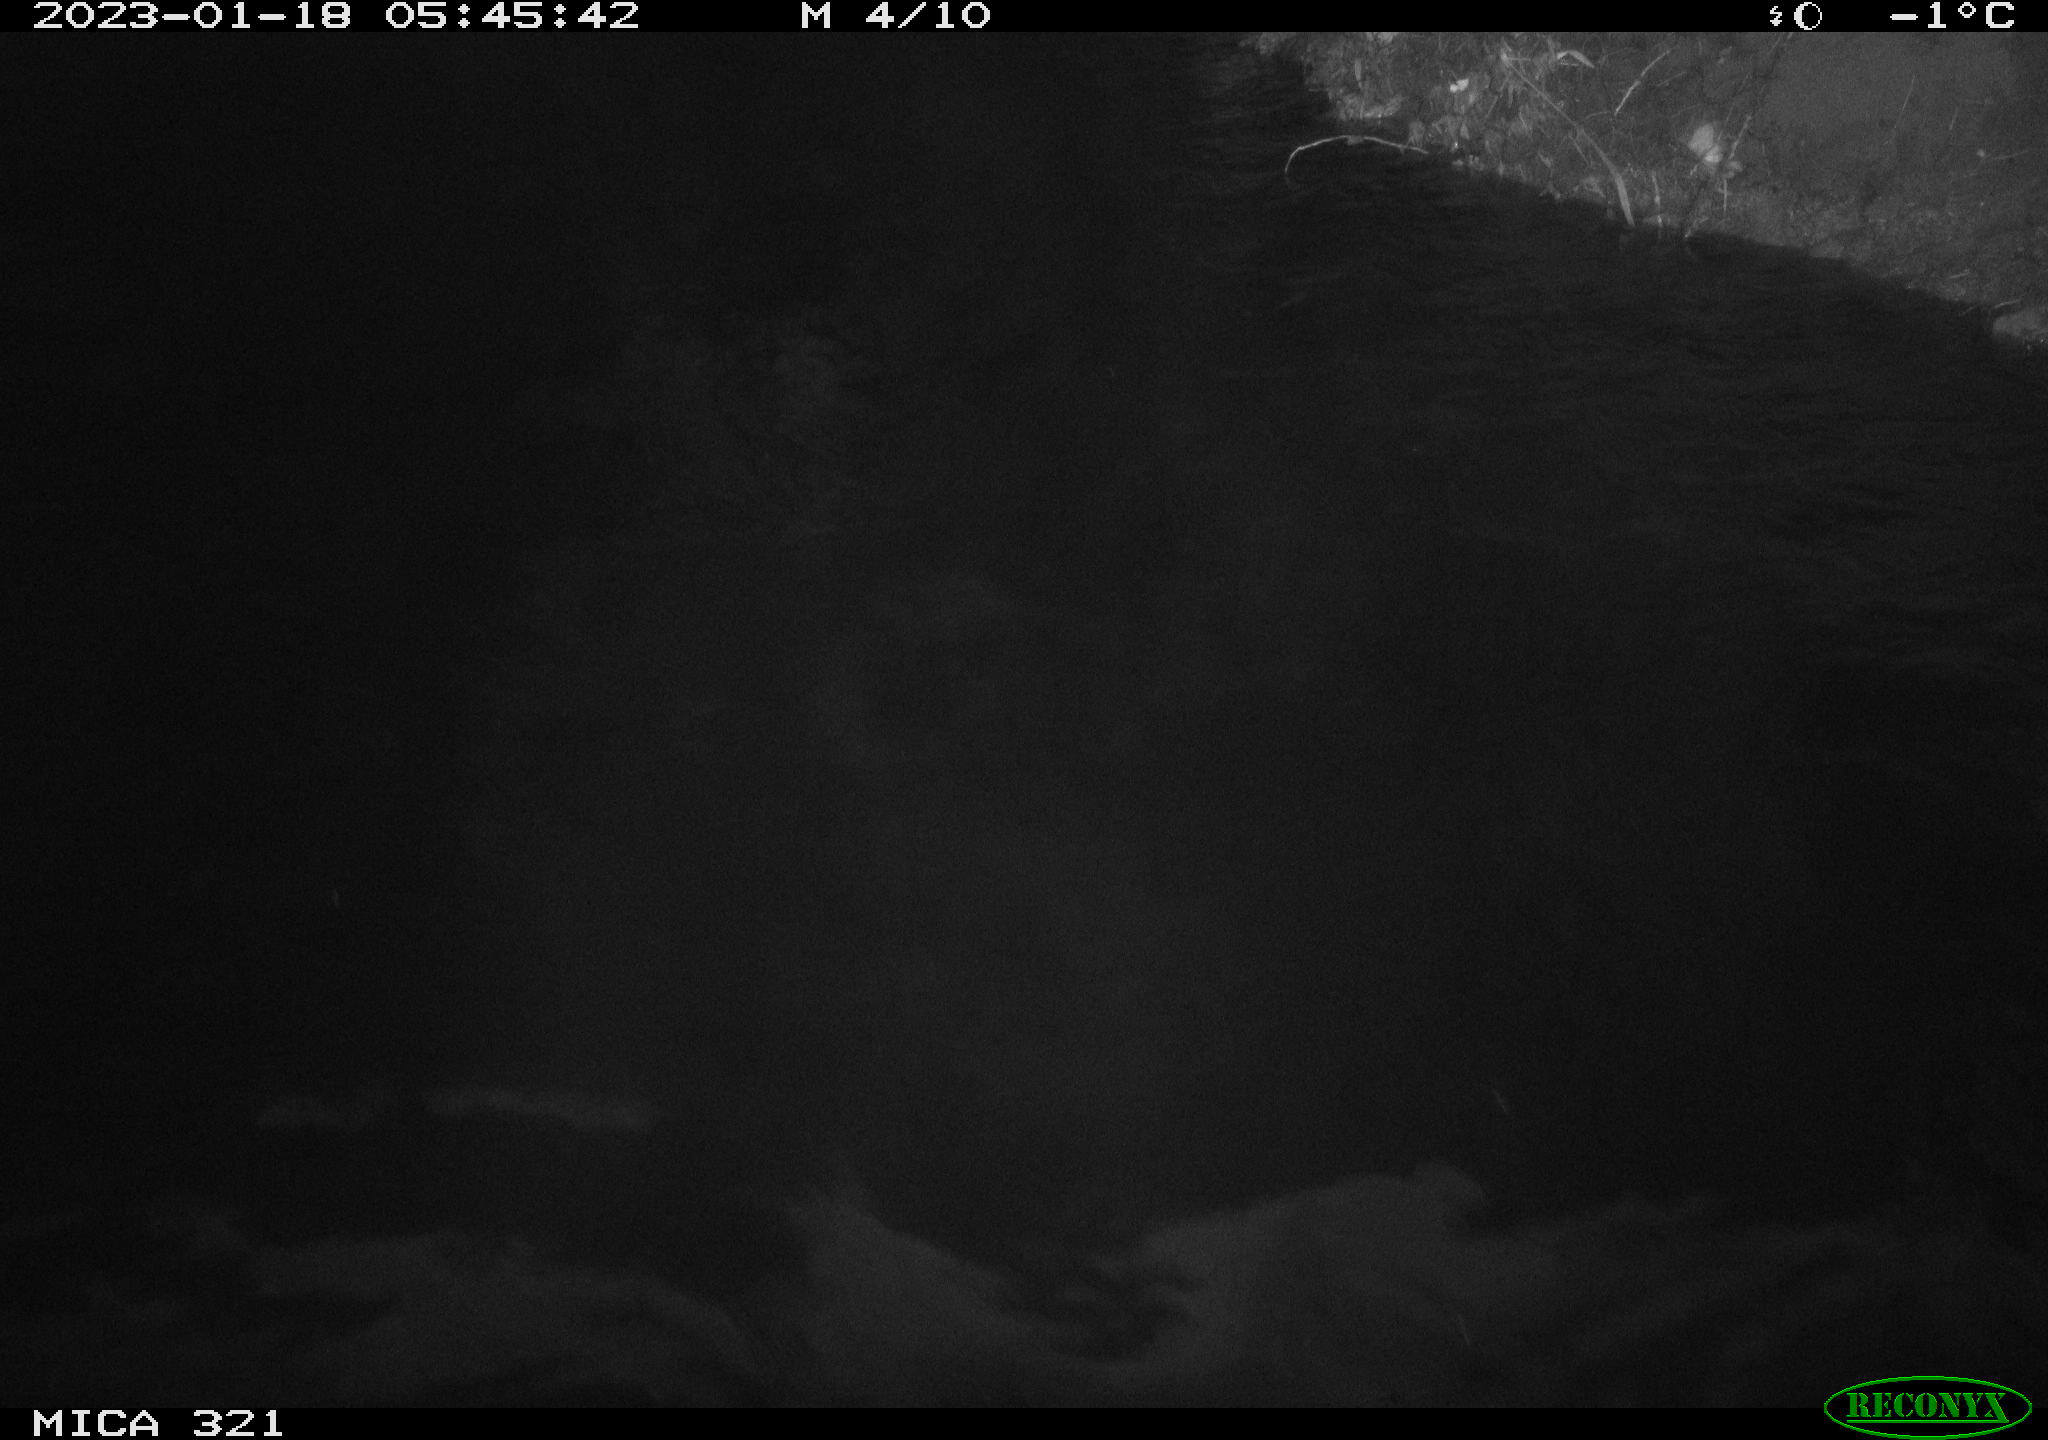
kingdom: Animalia
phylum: Chordata
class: Aves
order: Anseriformes
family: Anatidae
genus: Anas
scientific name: Anas
